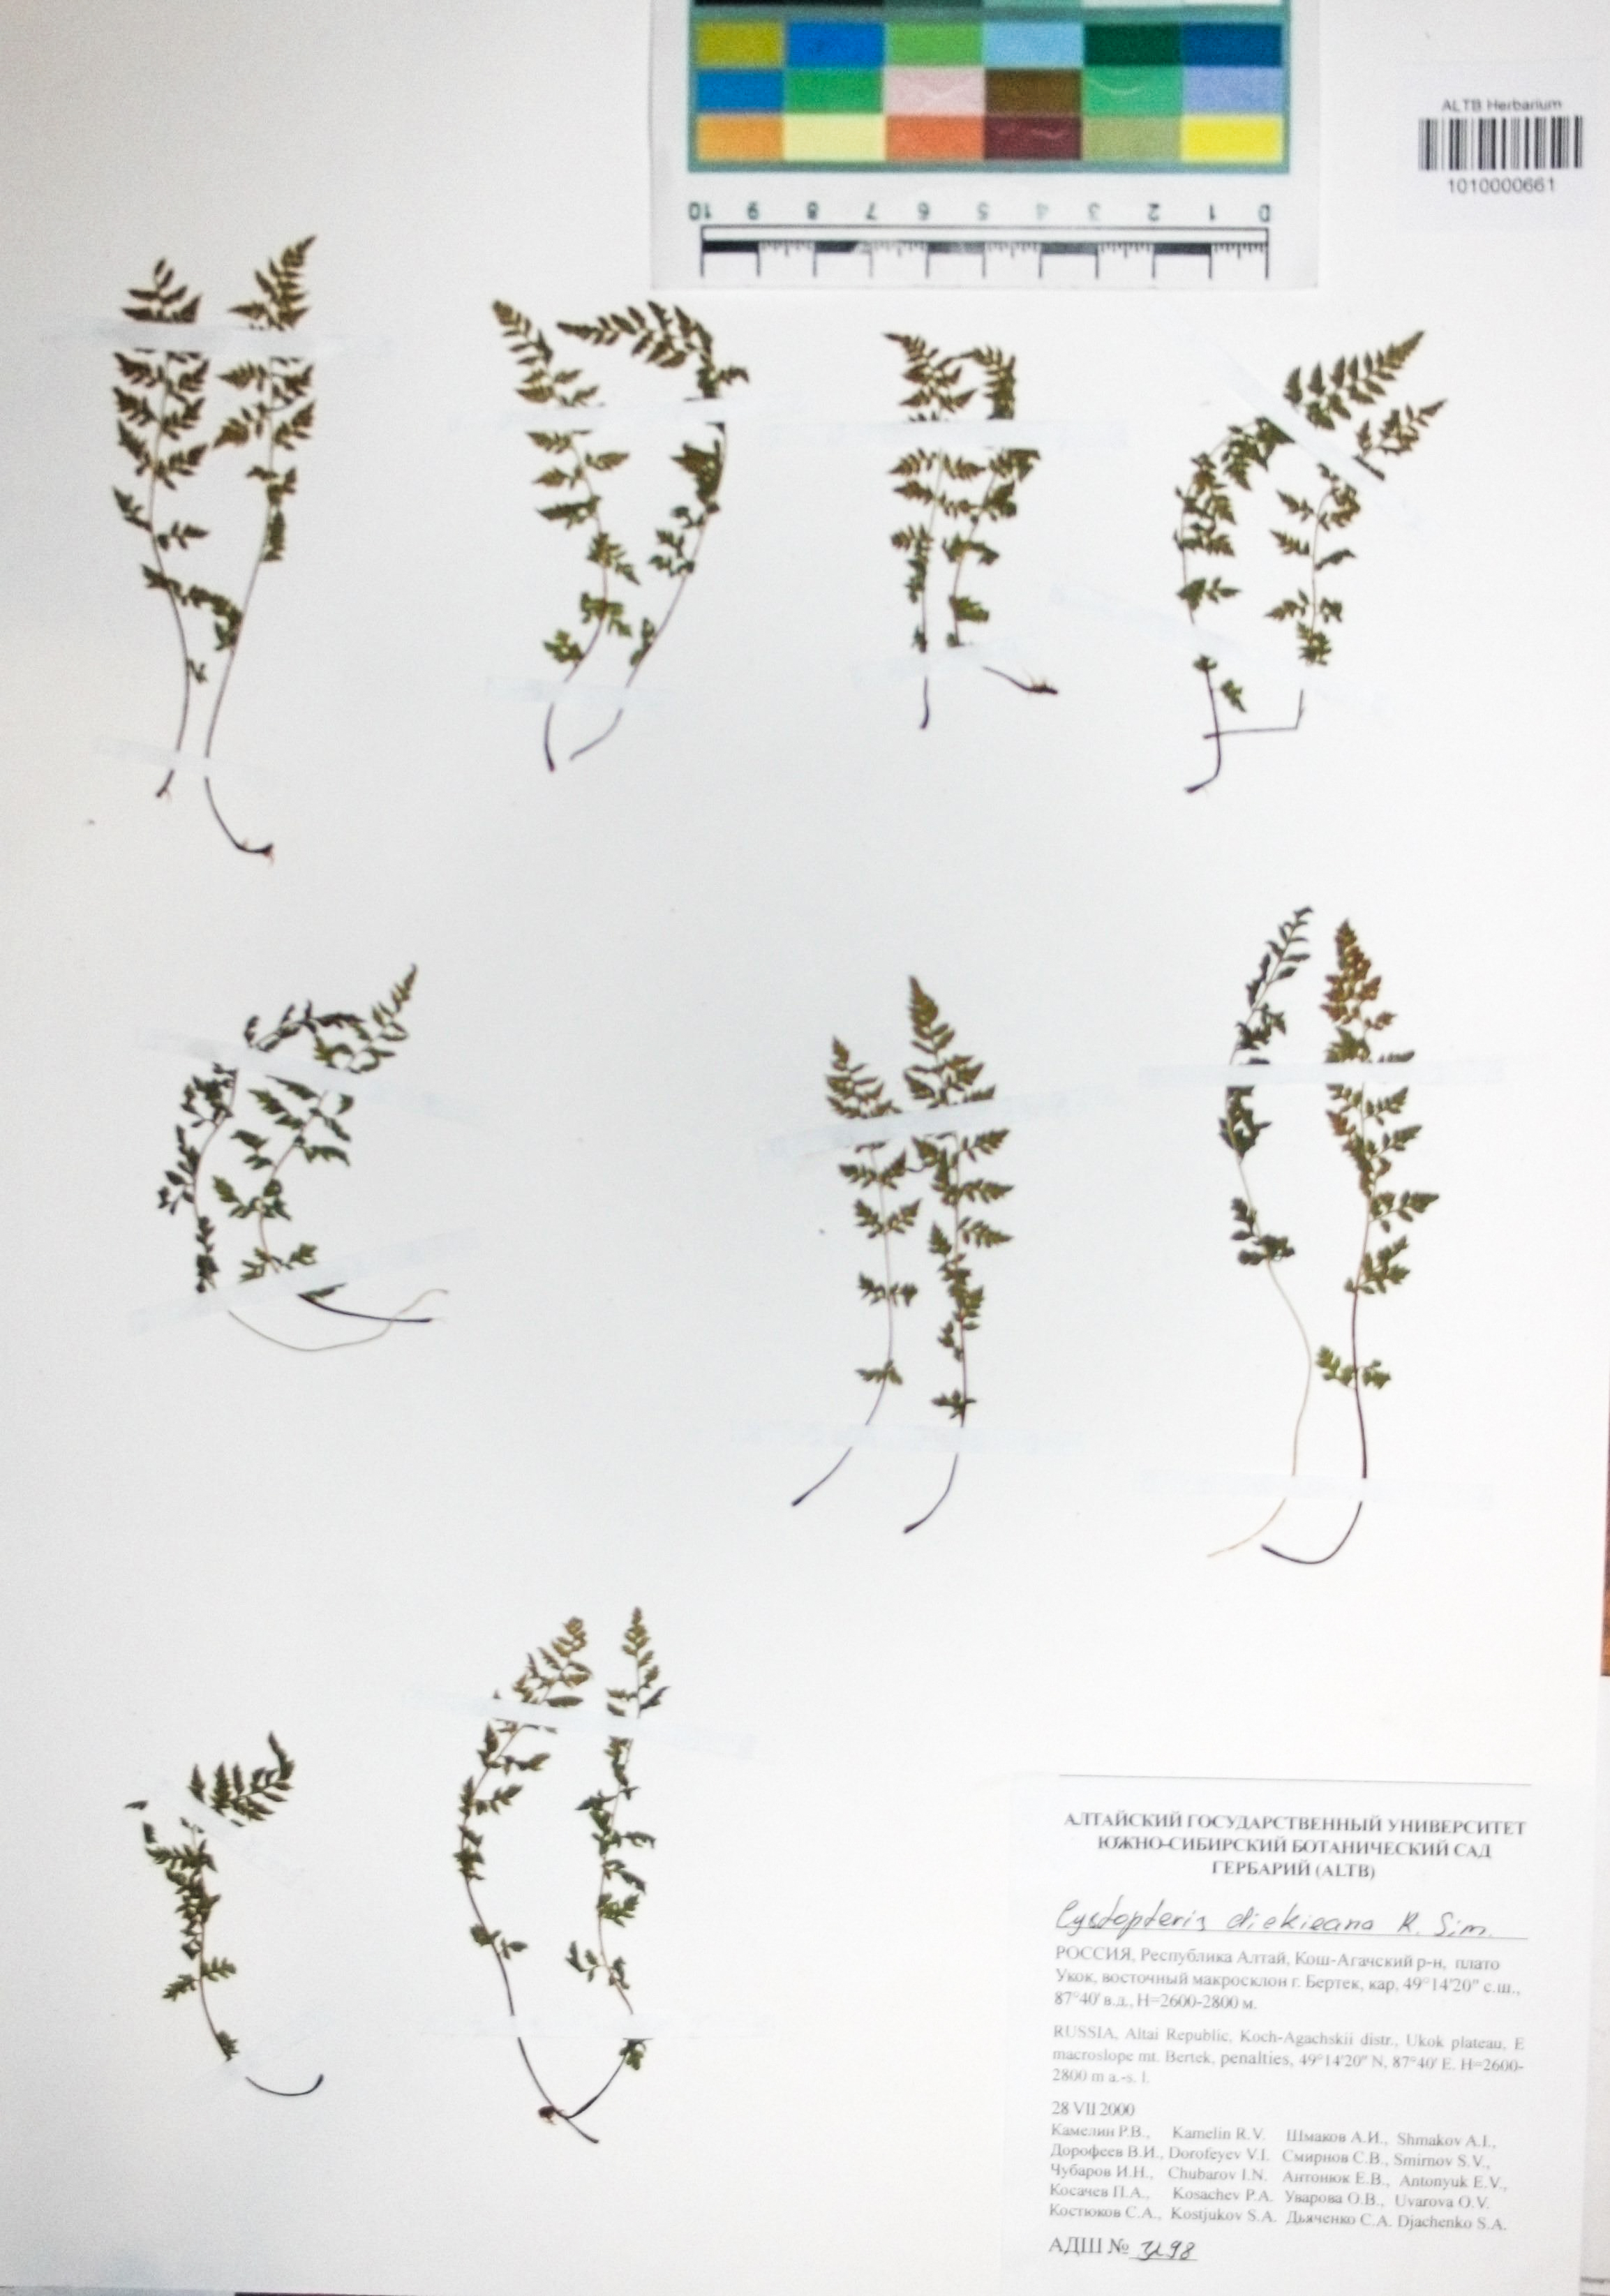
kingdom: Plantae
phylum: Tracheophyta
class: Polypodiopsida
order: Polypodiales
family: Cystopteridaceae
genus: Cystopteris
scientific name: Cystopteris dickieana
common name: Dickie's bladder-fern
